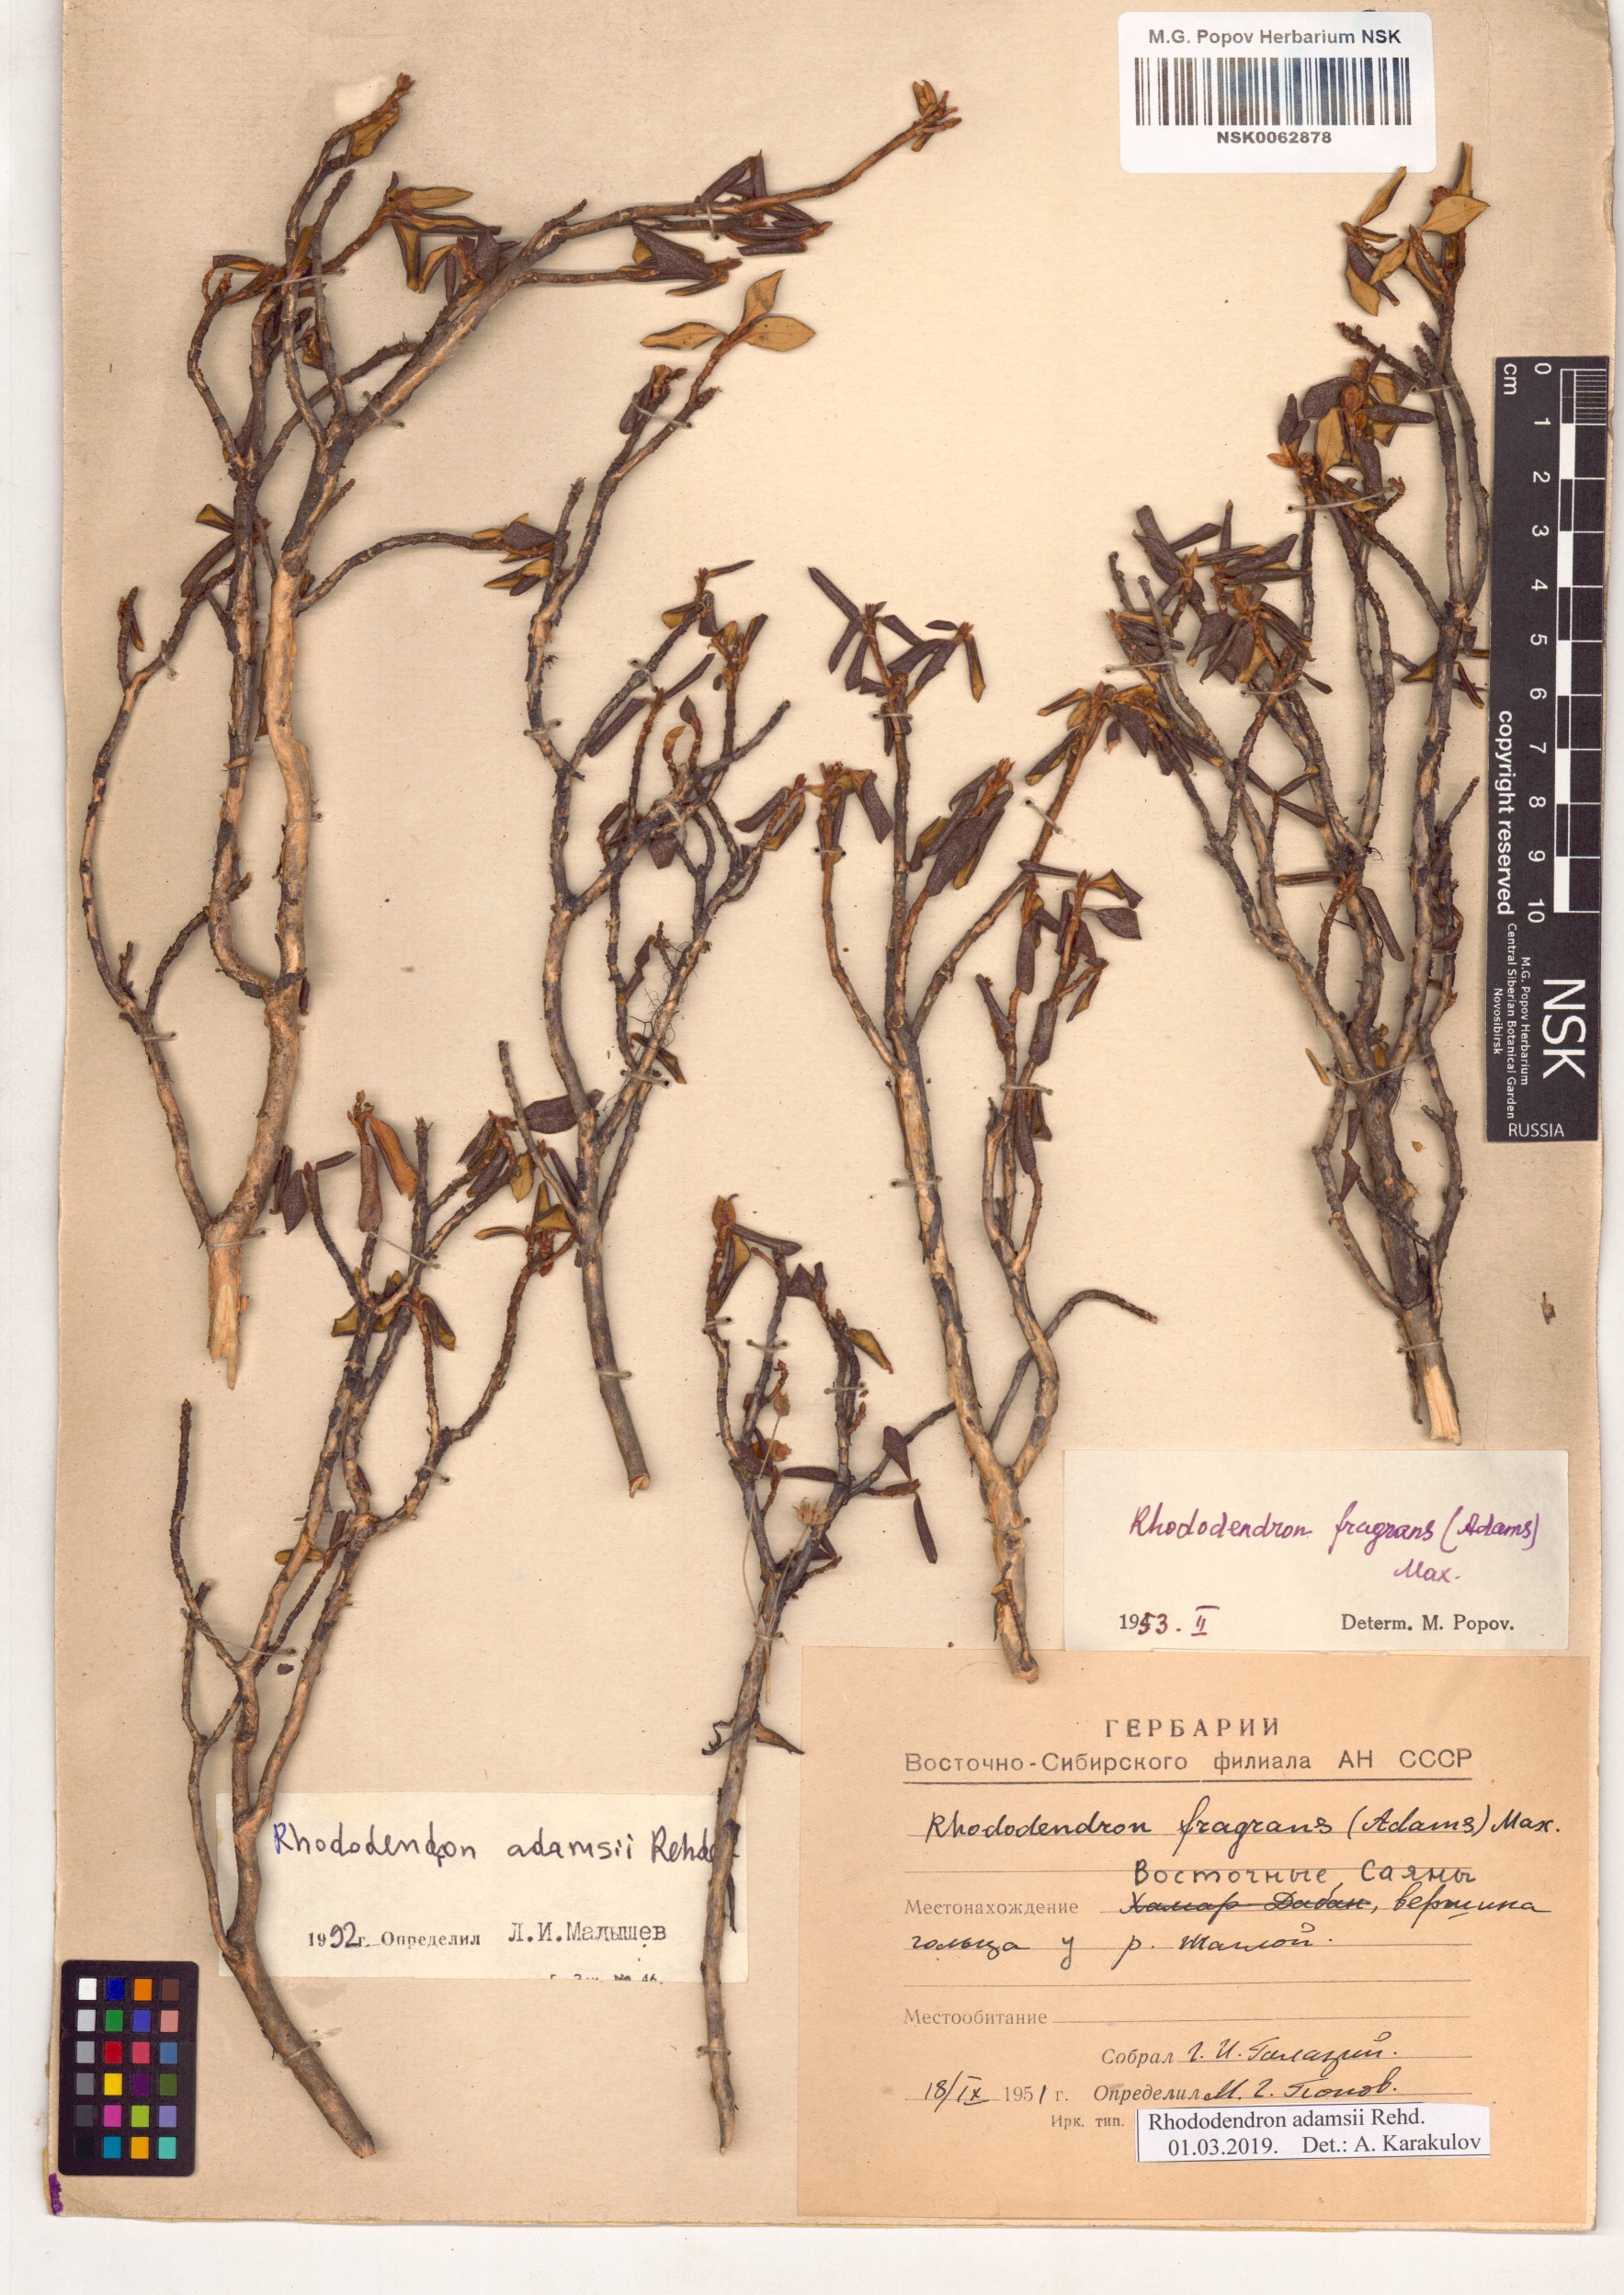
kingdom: Plantae
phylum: Tracheophyta
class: Magnoliopsida
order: Ericales
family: Ericaceae
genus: Rhododendron
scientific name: Rhododendron adamsii
